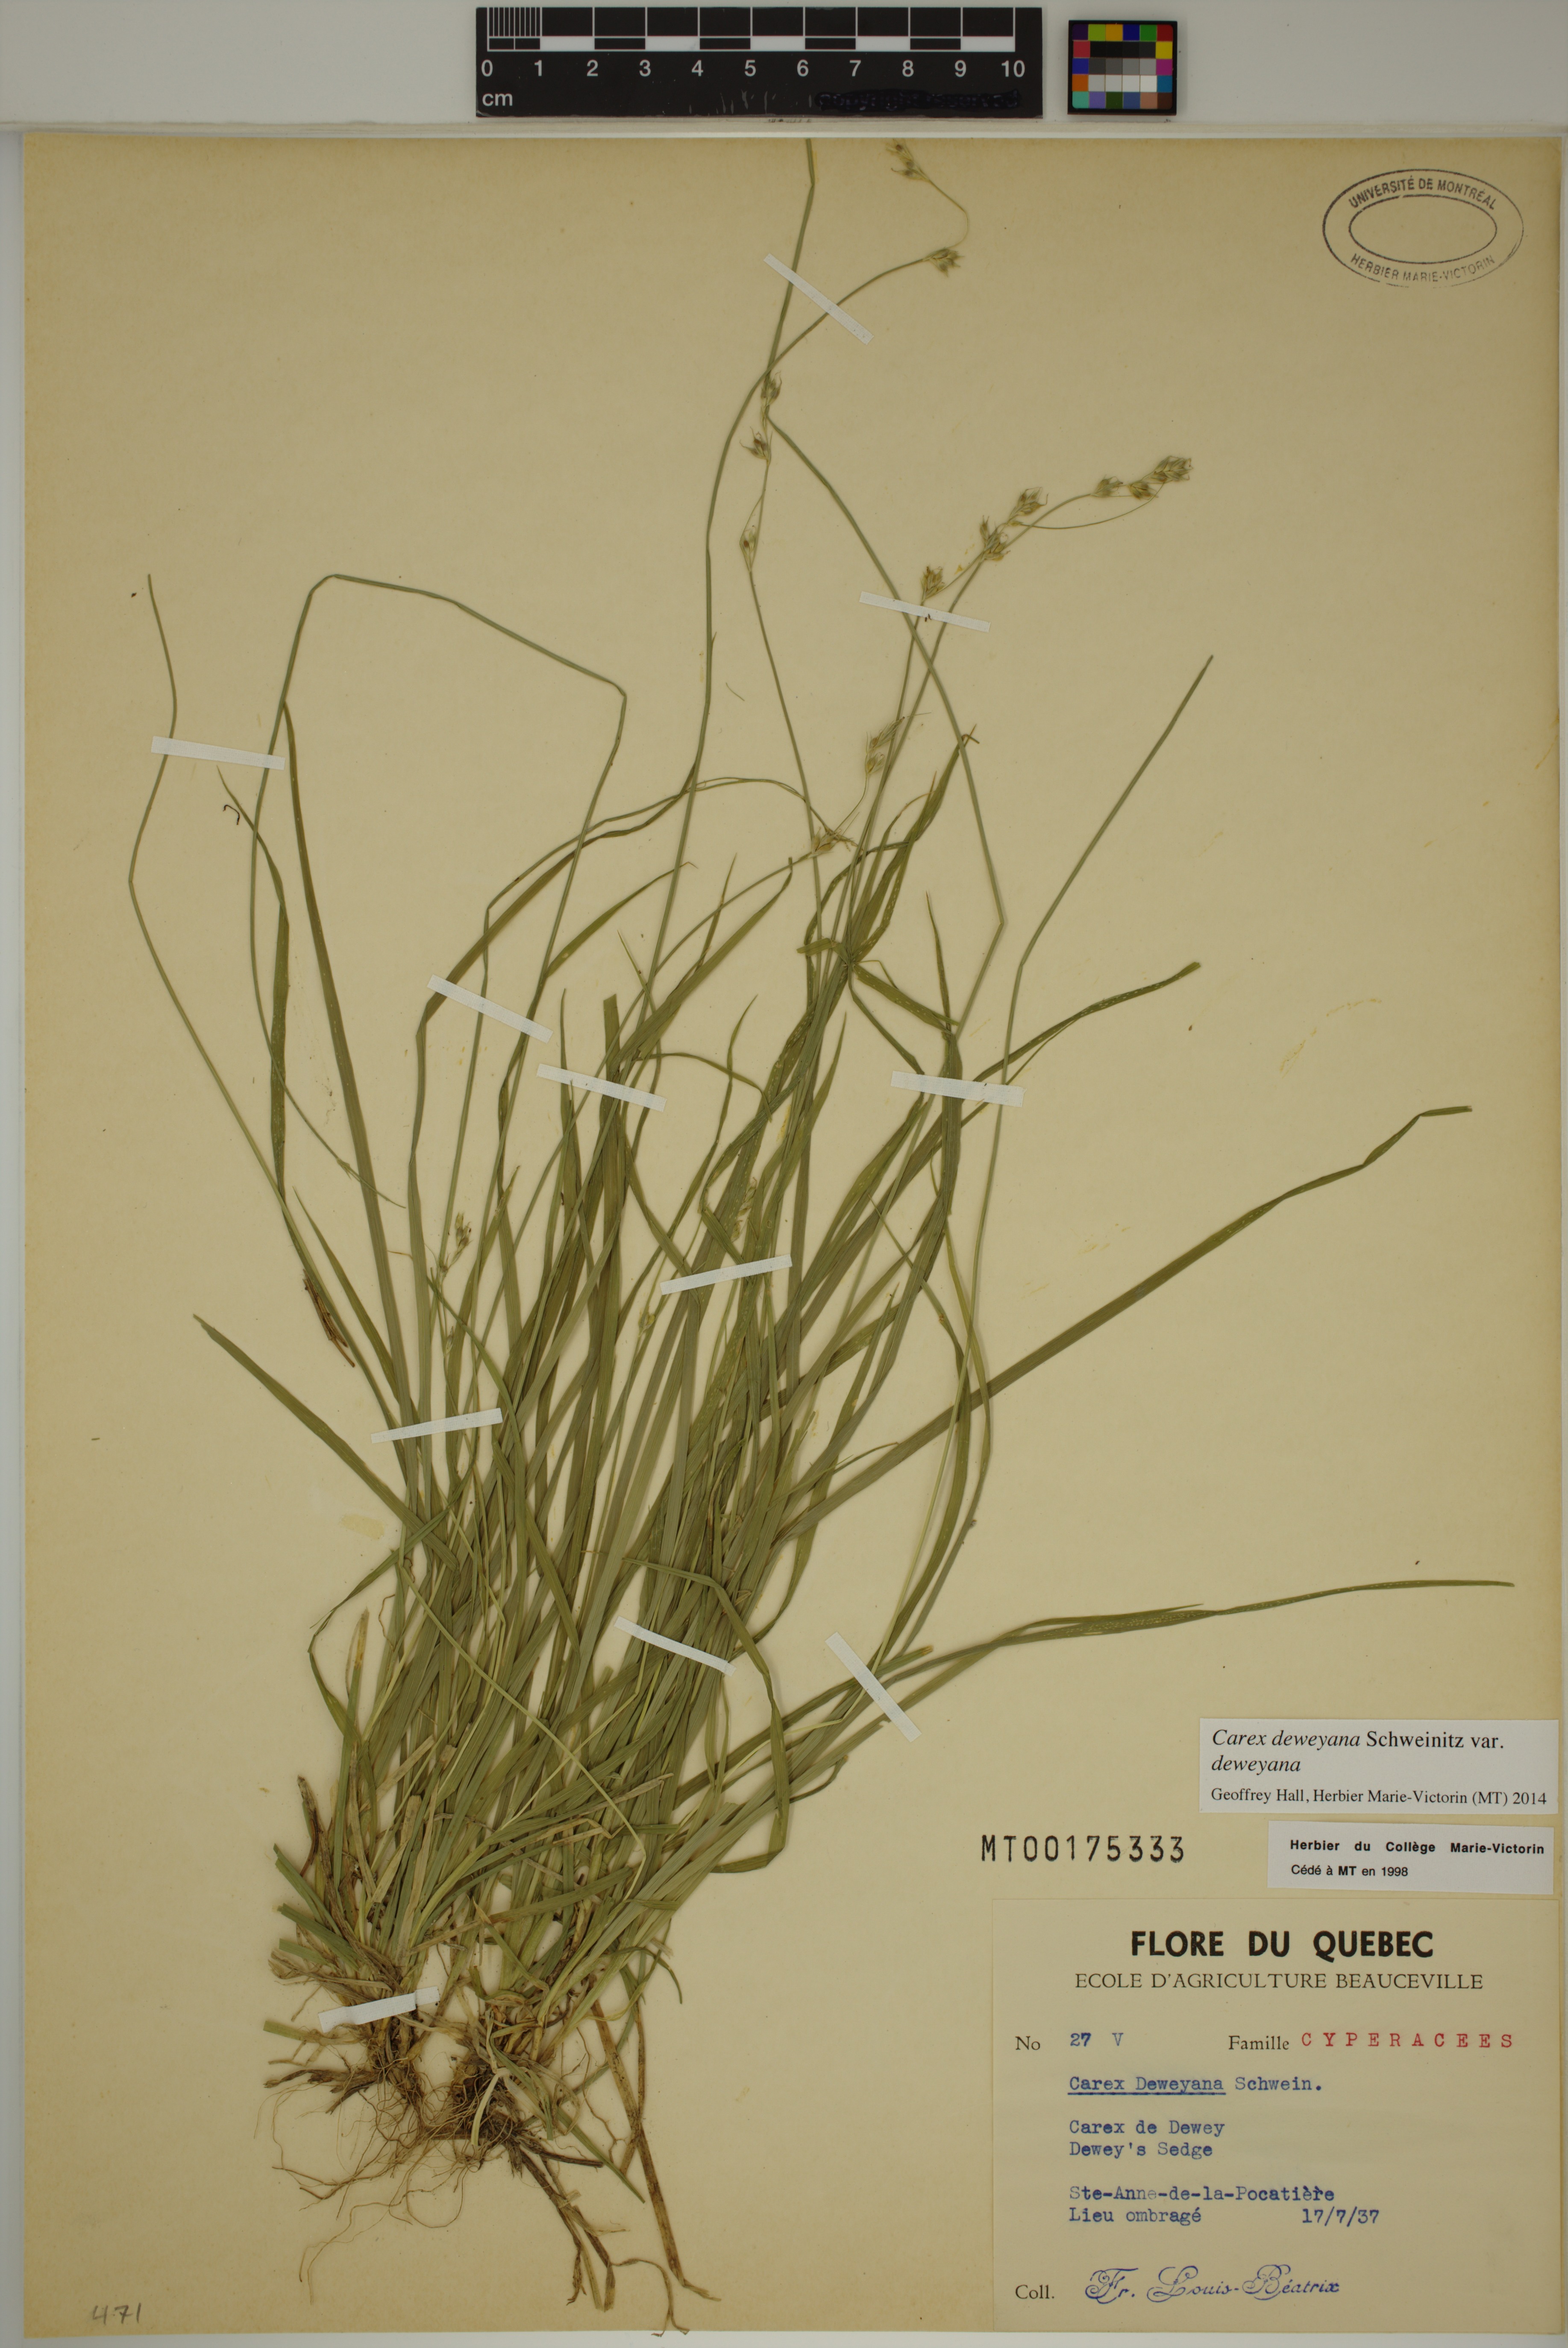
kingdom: Plantae
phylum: Tracheophyta
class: Liliopsida
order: Poales
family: Cyperaceae
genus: Carex
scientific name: Carex deweyana
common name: Dewey's sedge
